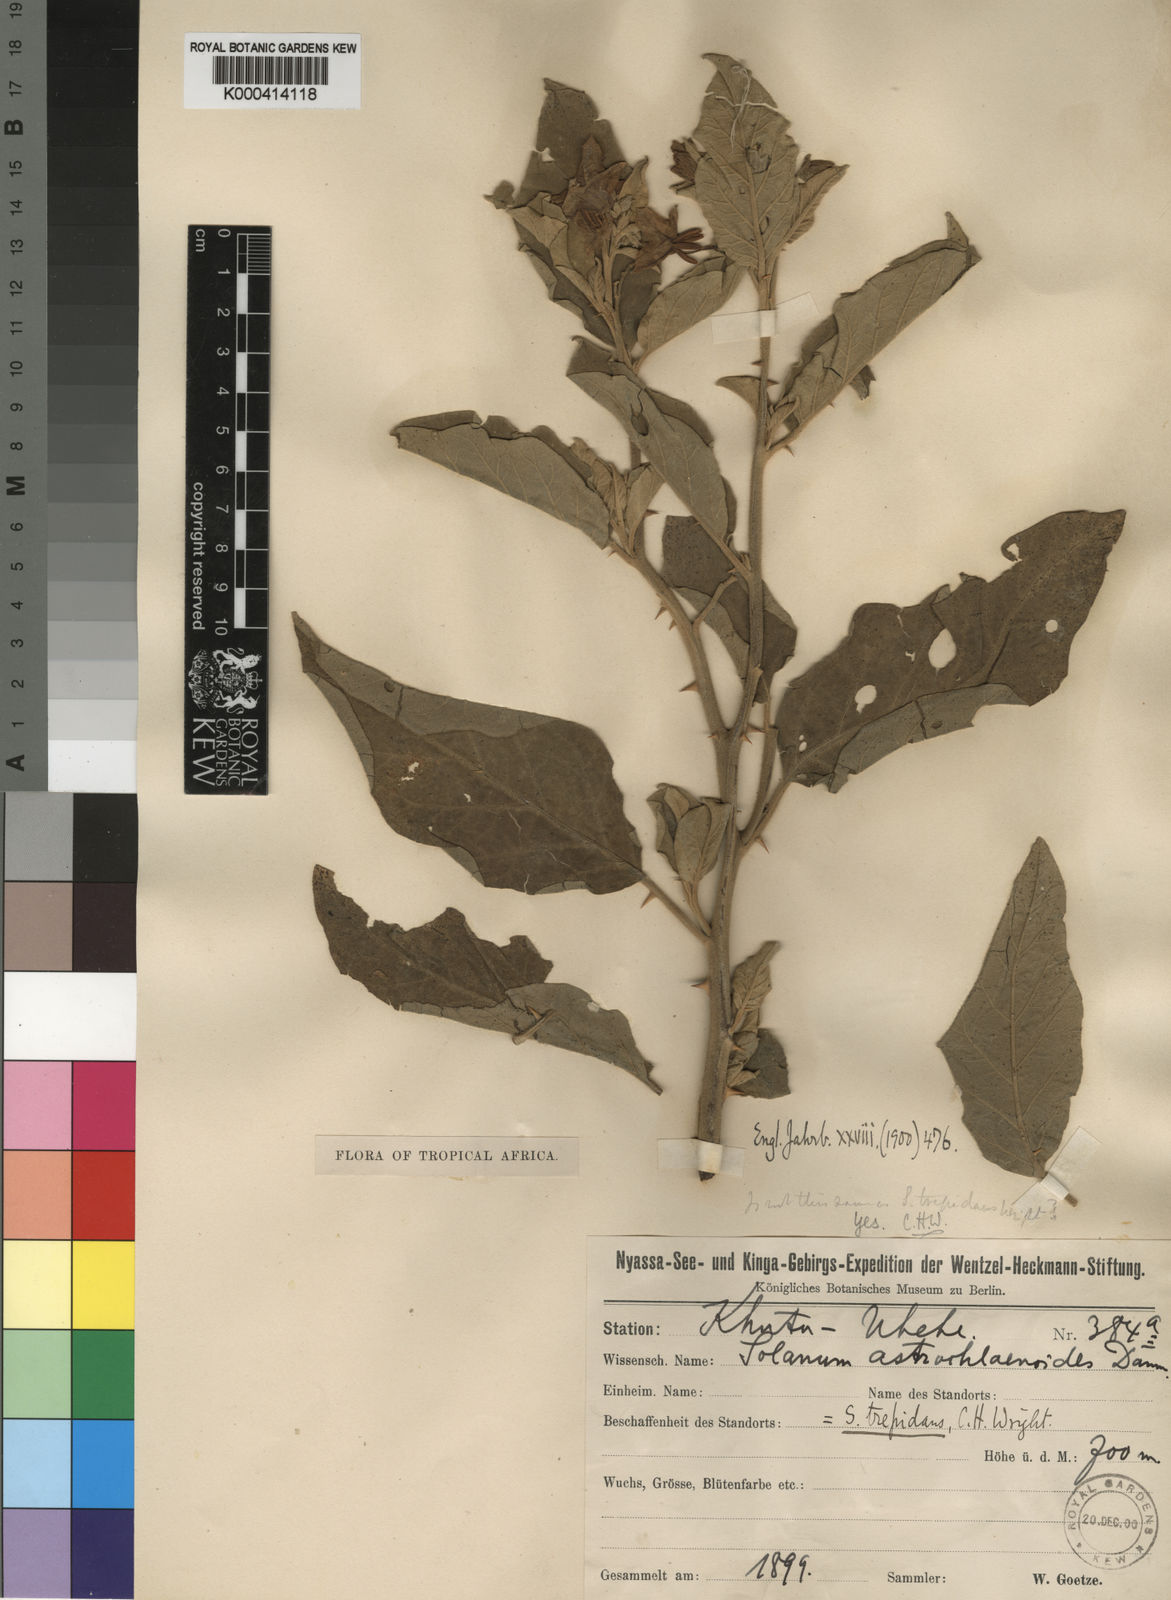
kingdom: Plantae
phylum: Tracheophyta
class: Magnoliopsida
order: Solanales
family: Solanaceae
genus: Solanum
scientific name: Solanum incanum
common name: Bitter apple
